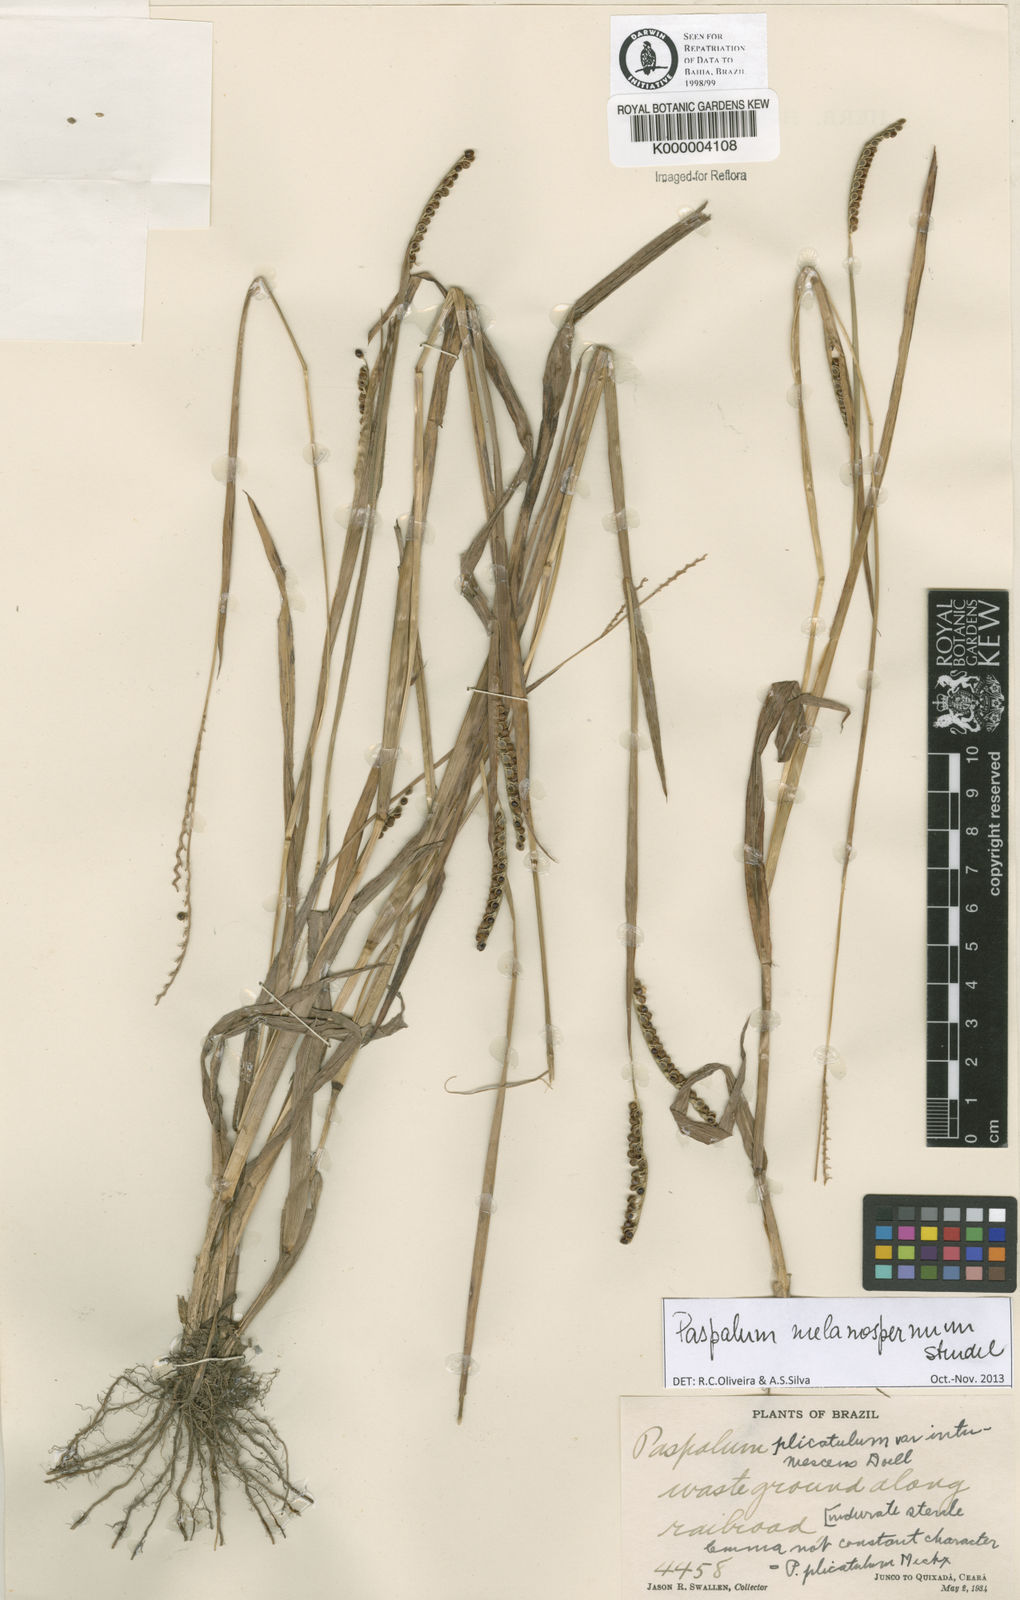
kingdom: Plantae
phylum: Tracheophyta
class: Liliopsida
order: Poales
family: Poaceae
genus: Paspalum
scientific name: Paspalum
